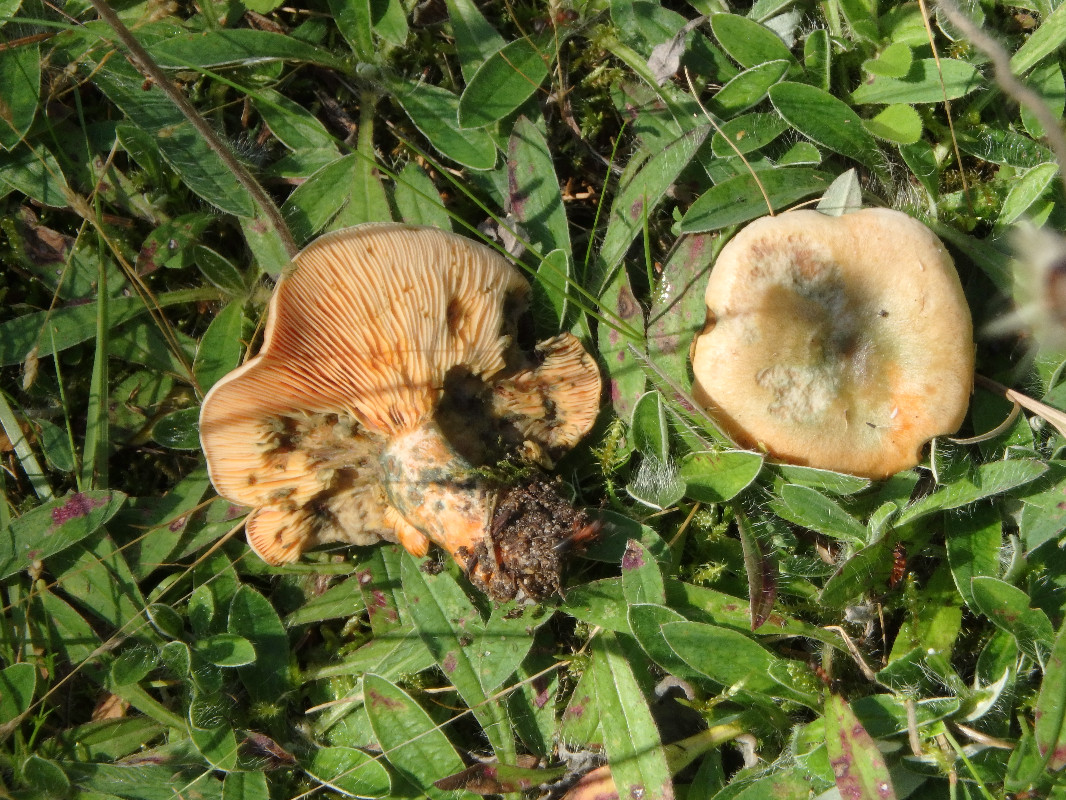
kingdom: Fungi
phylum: Basidiomycota
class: Agaricomycetes
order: Russulales
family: Russulaceae
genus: Lactarius
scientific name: Lactarius deterrimus
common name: gran-mælkehat
